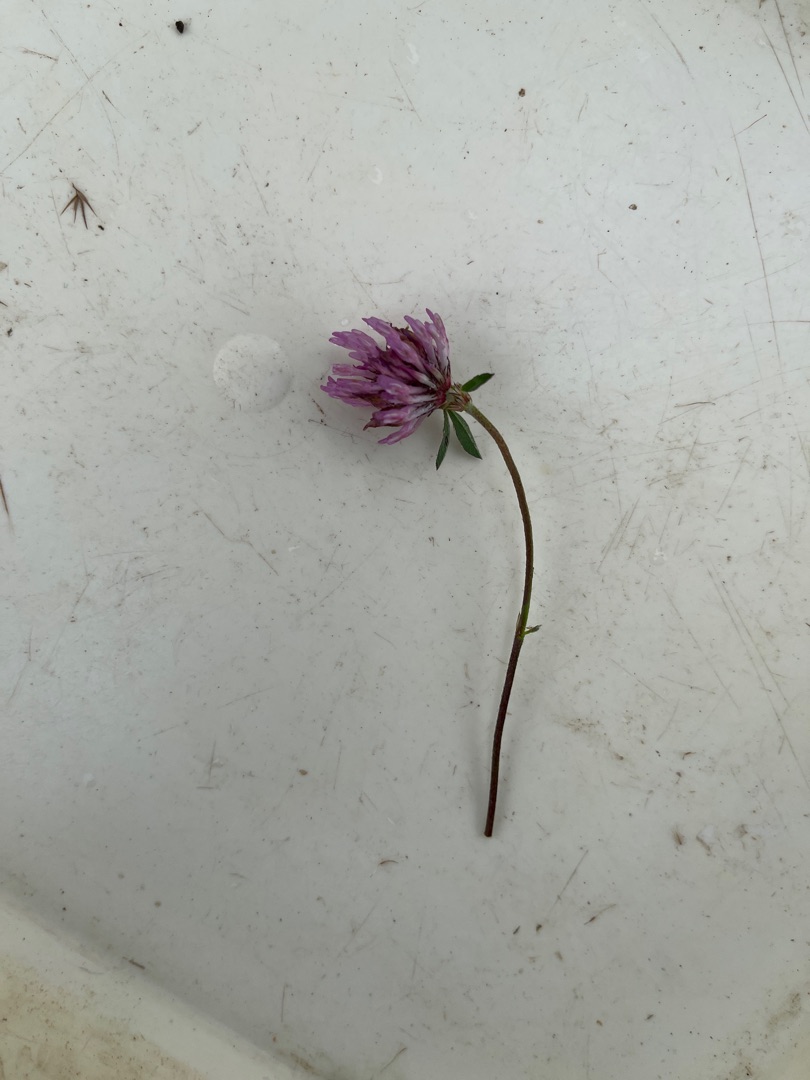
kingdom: Plantae
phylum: Tracheophyta
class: Magnoliopsida
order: Fabales
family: Fabaceae
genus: Trifolium
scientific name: Trifolium pratense
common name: Rød-kløver
